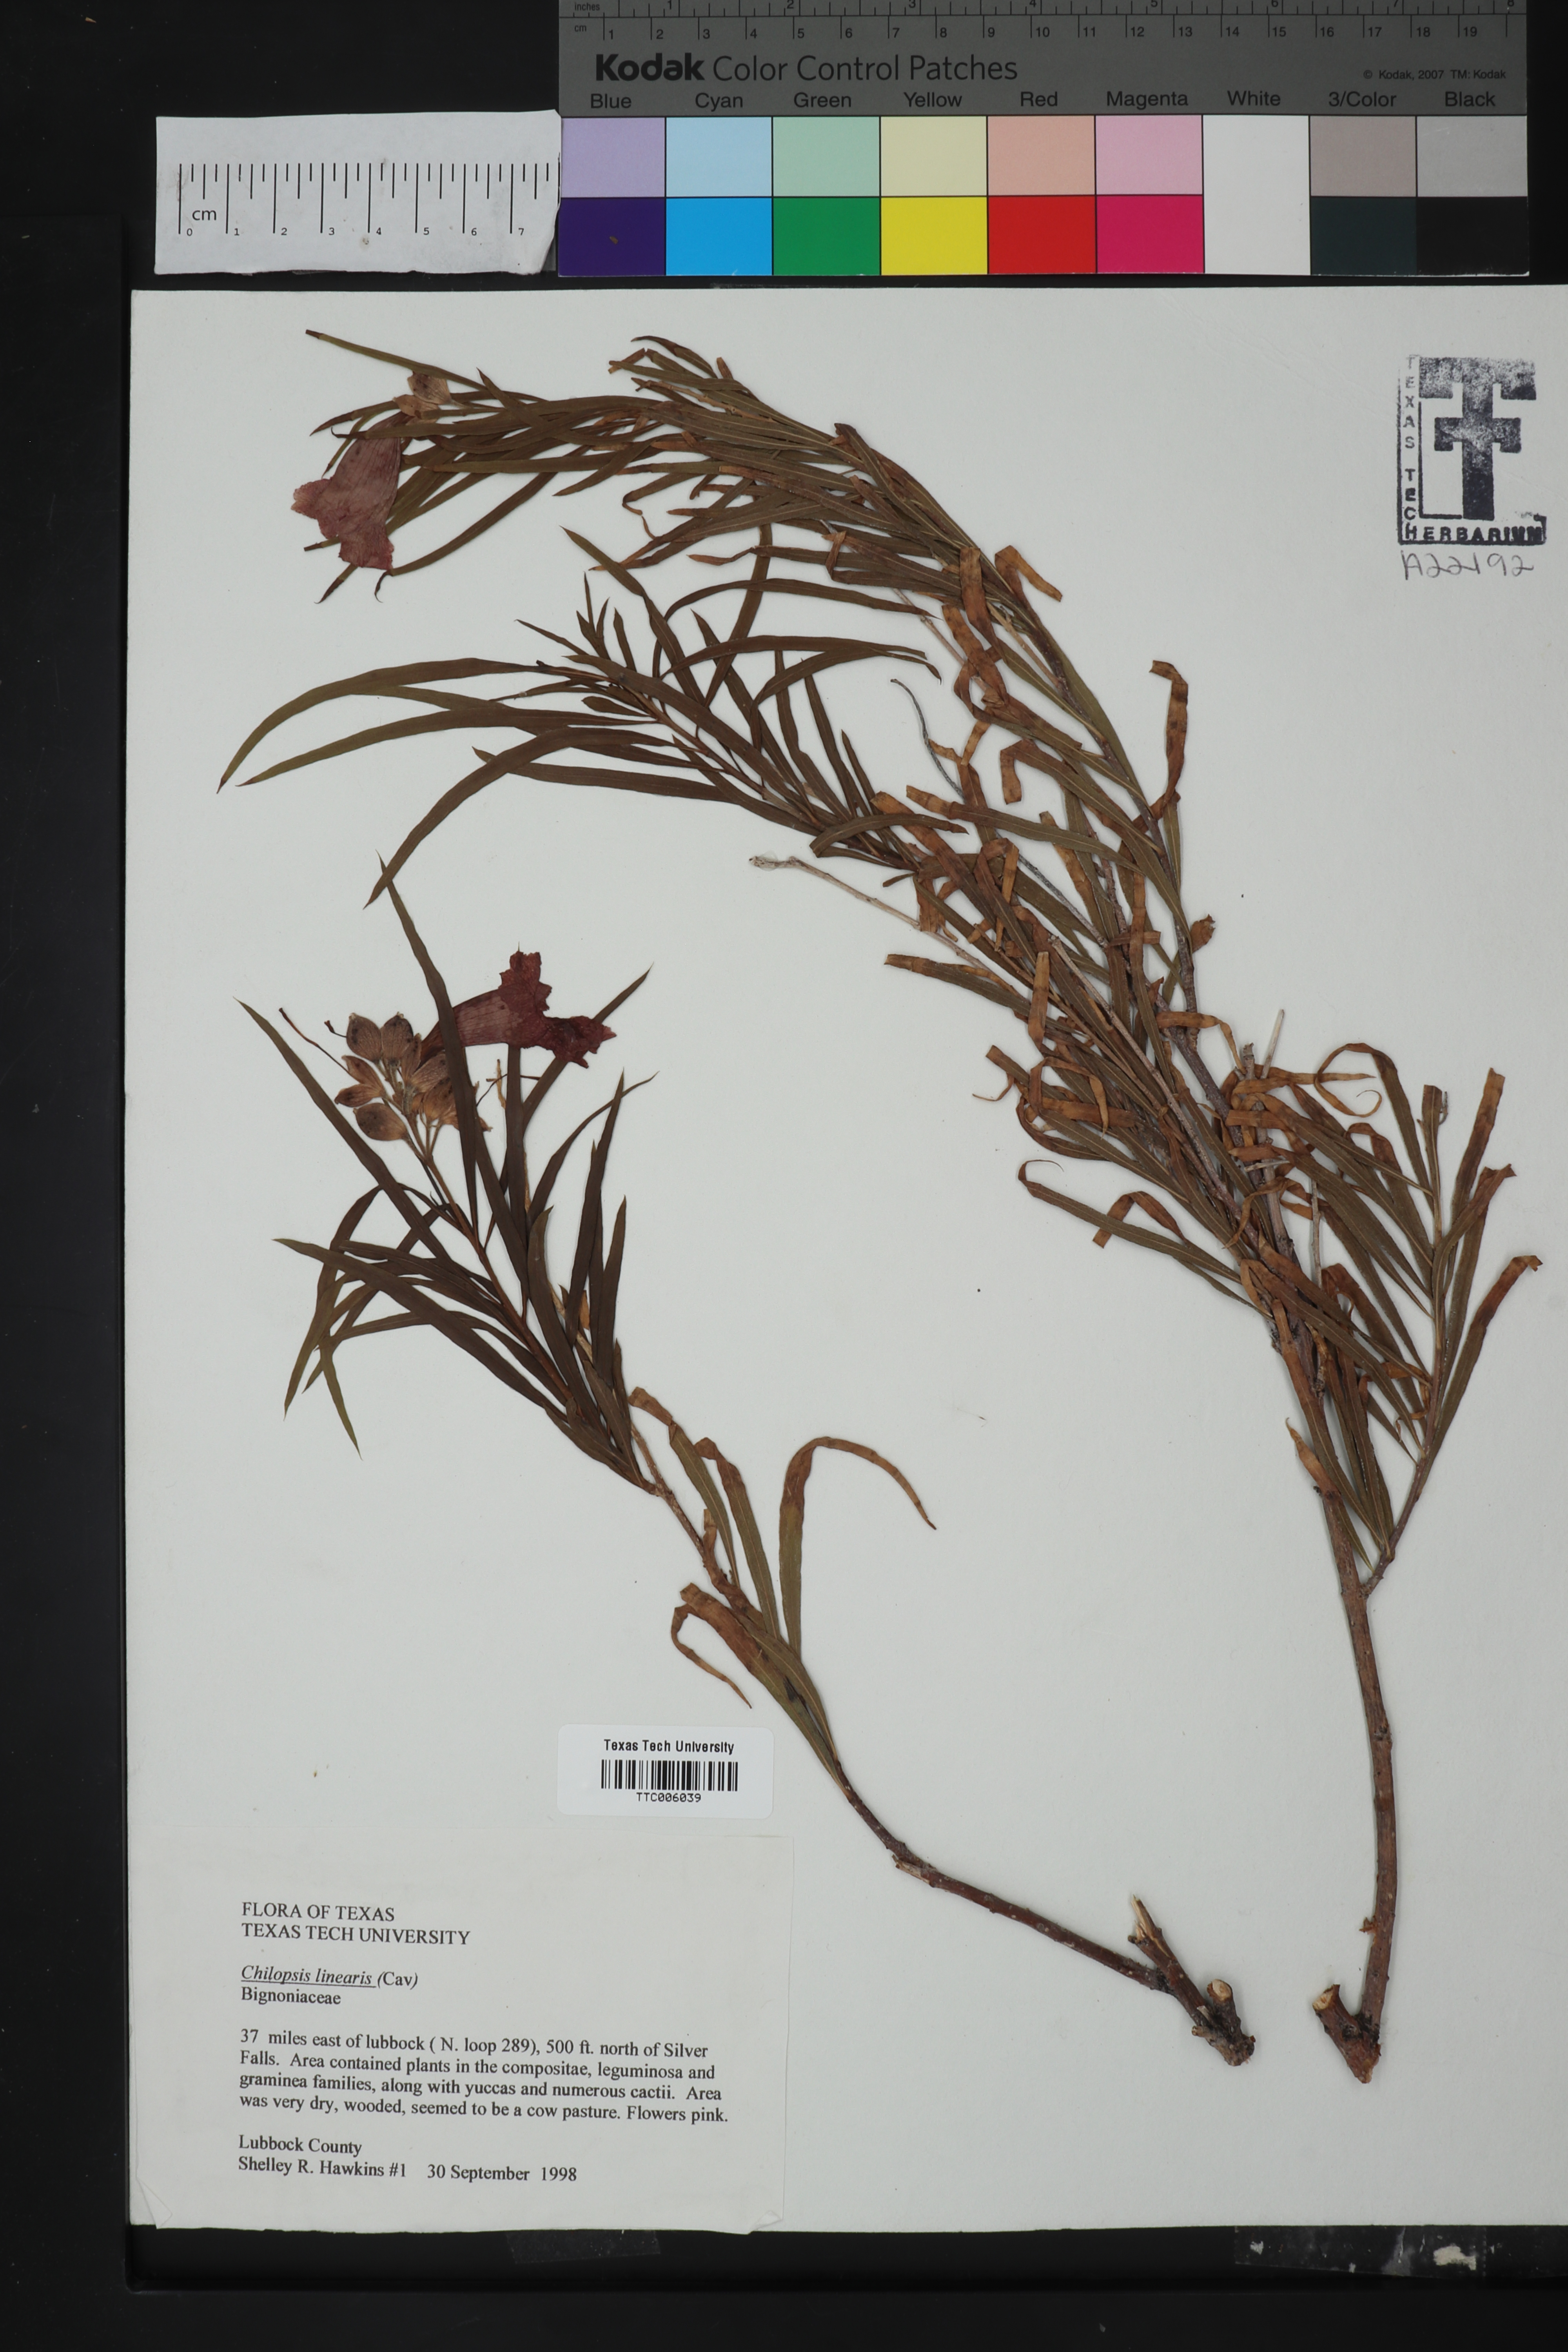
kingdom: Plantae
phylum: Tracheophyta
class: Magnoliopsida
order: Lamiales
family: Bignoniaceae
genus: Chilopsis
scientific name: Chilopsis linearis
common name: Desert-willow
